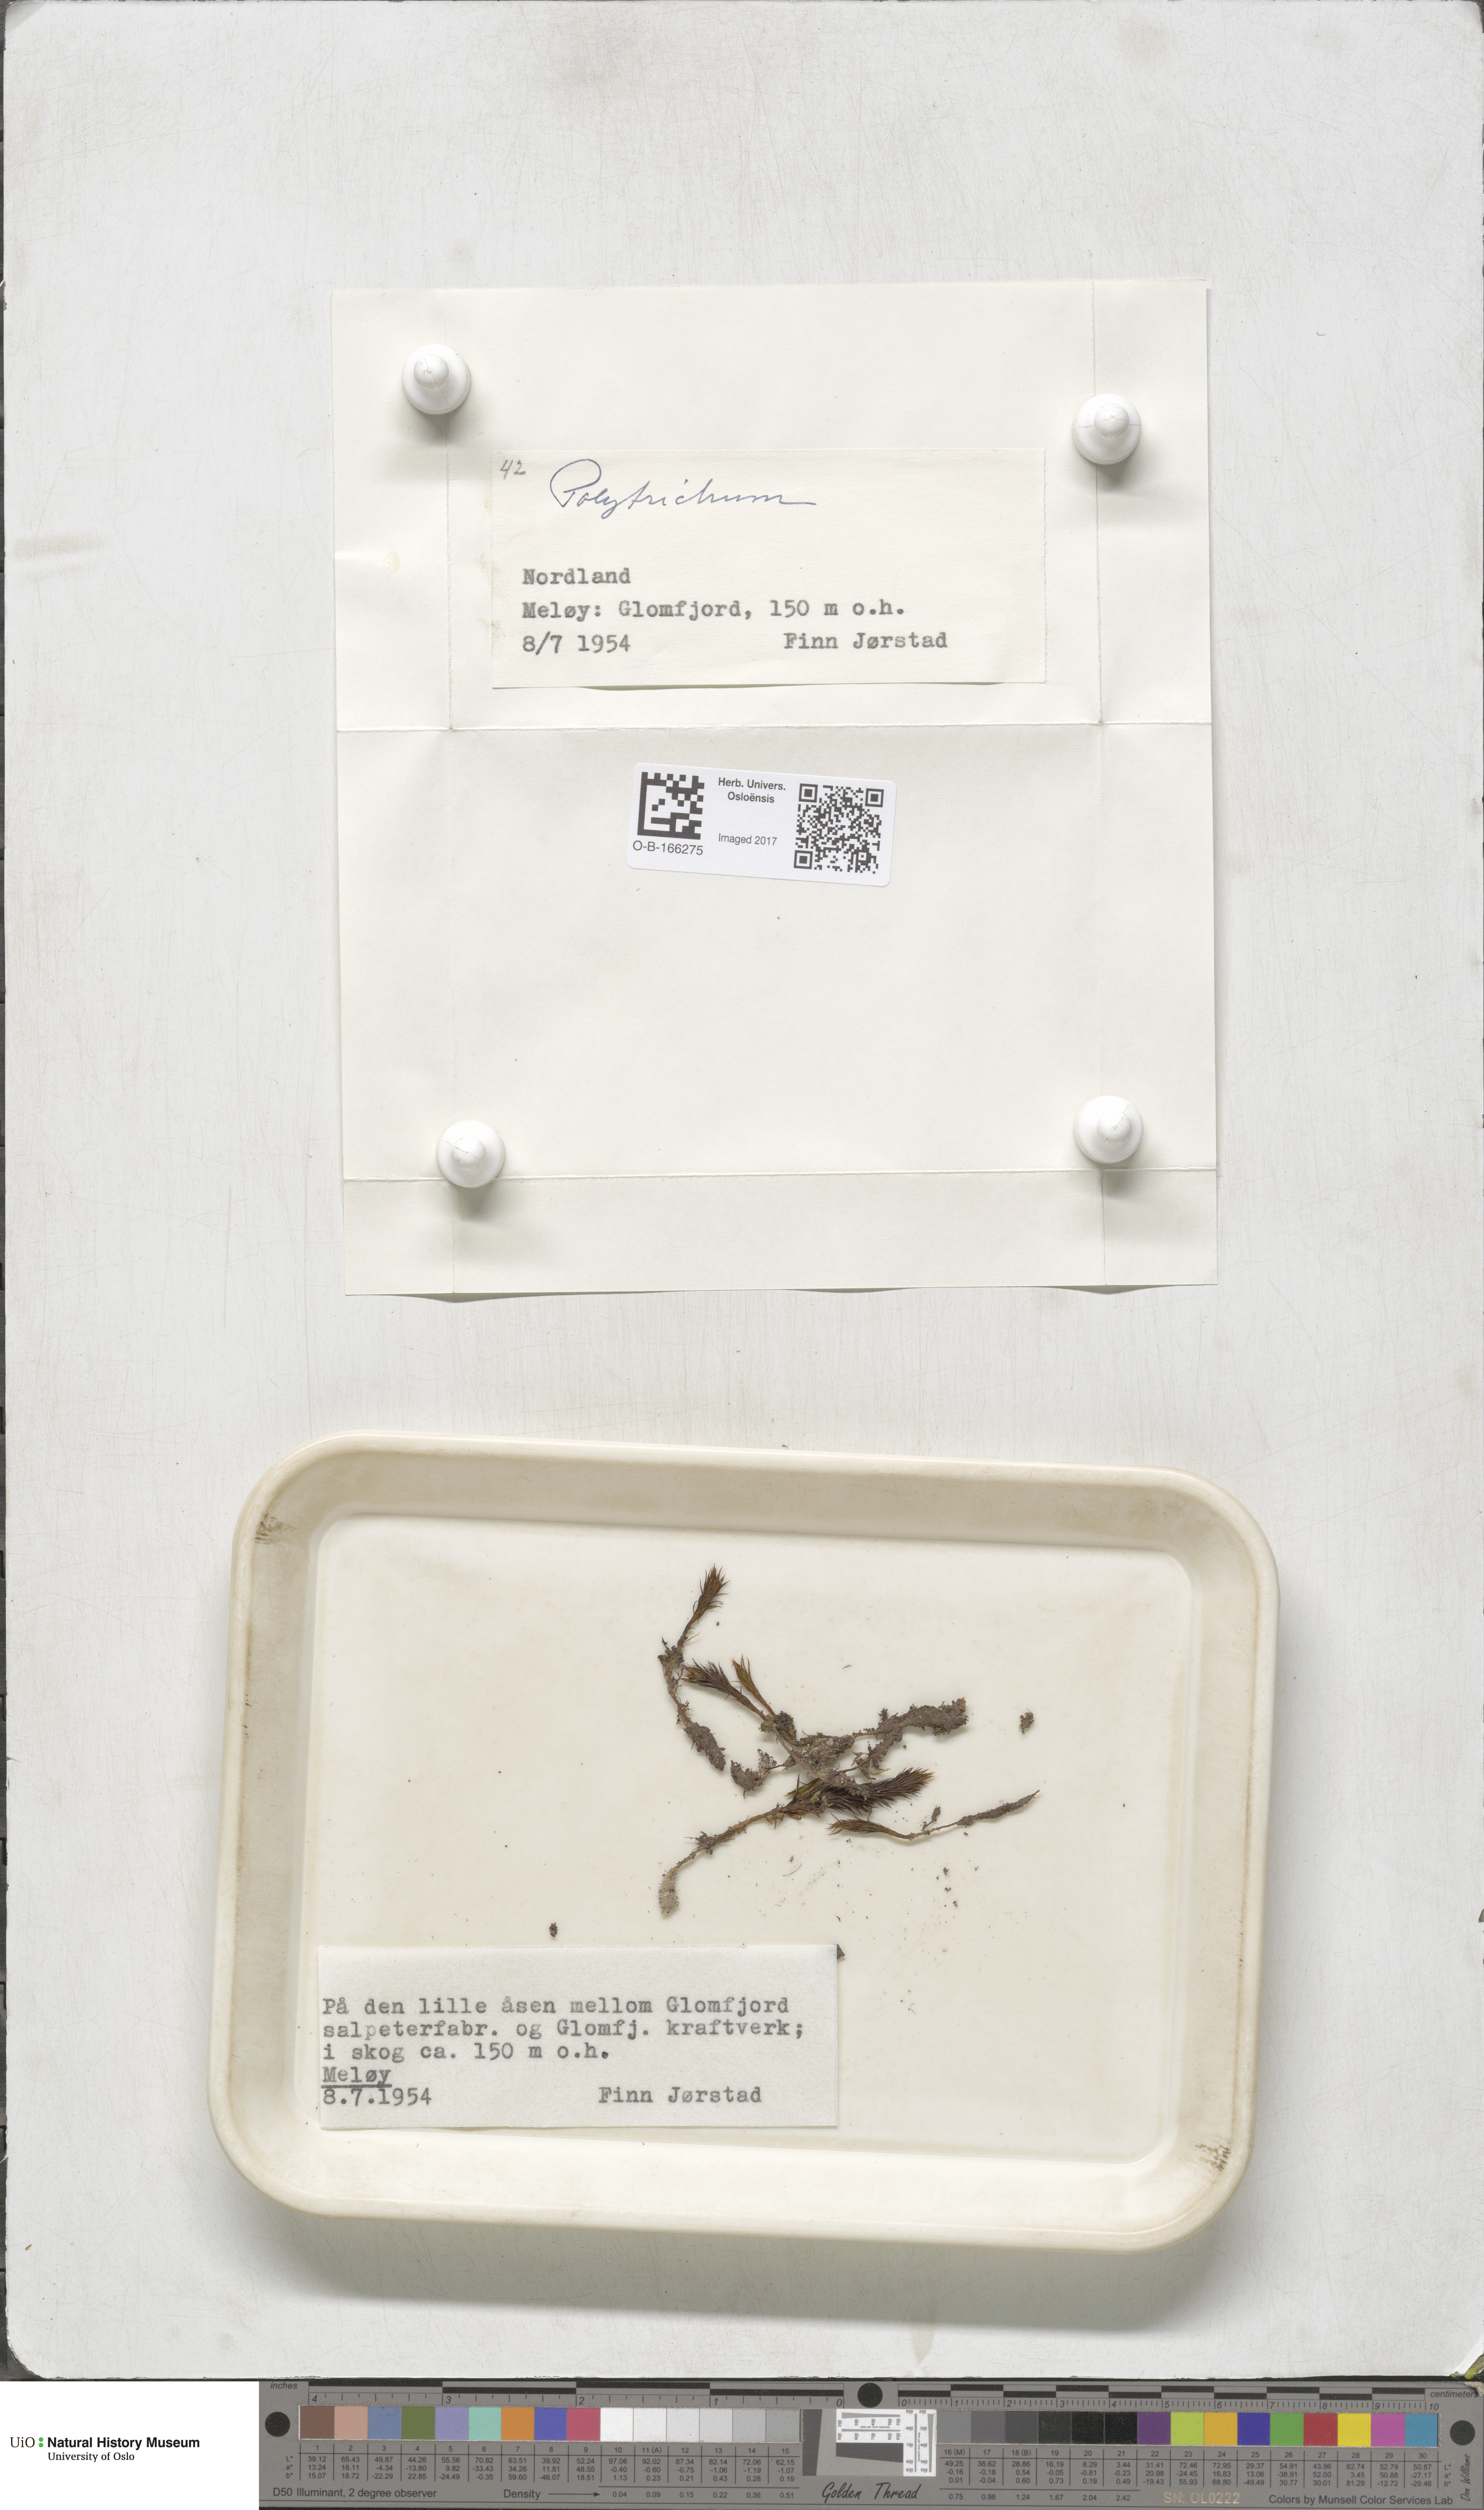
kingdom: Plantae
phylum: Bryophyta
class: Polytrichopsida
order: Polytrichales
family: Polytrichaceae
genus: Polytrichum
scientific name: Polytrichum
